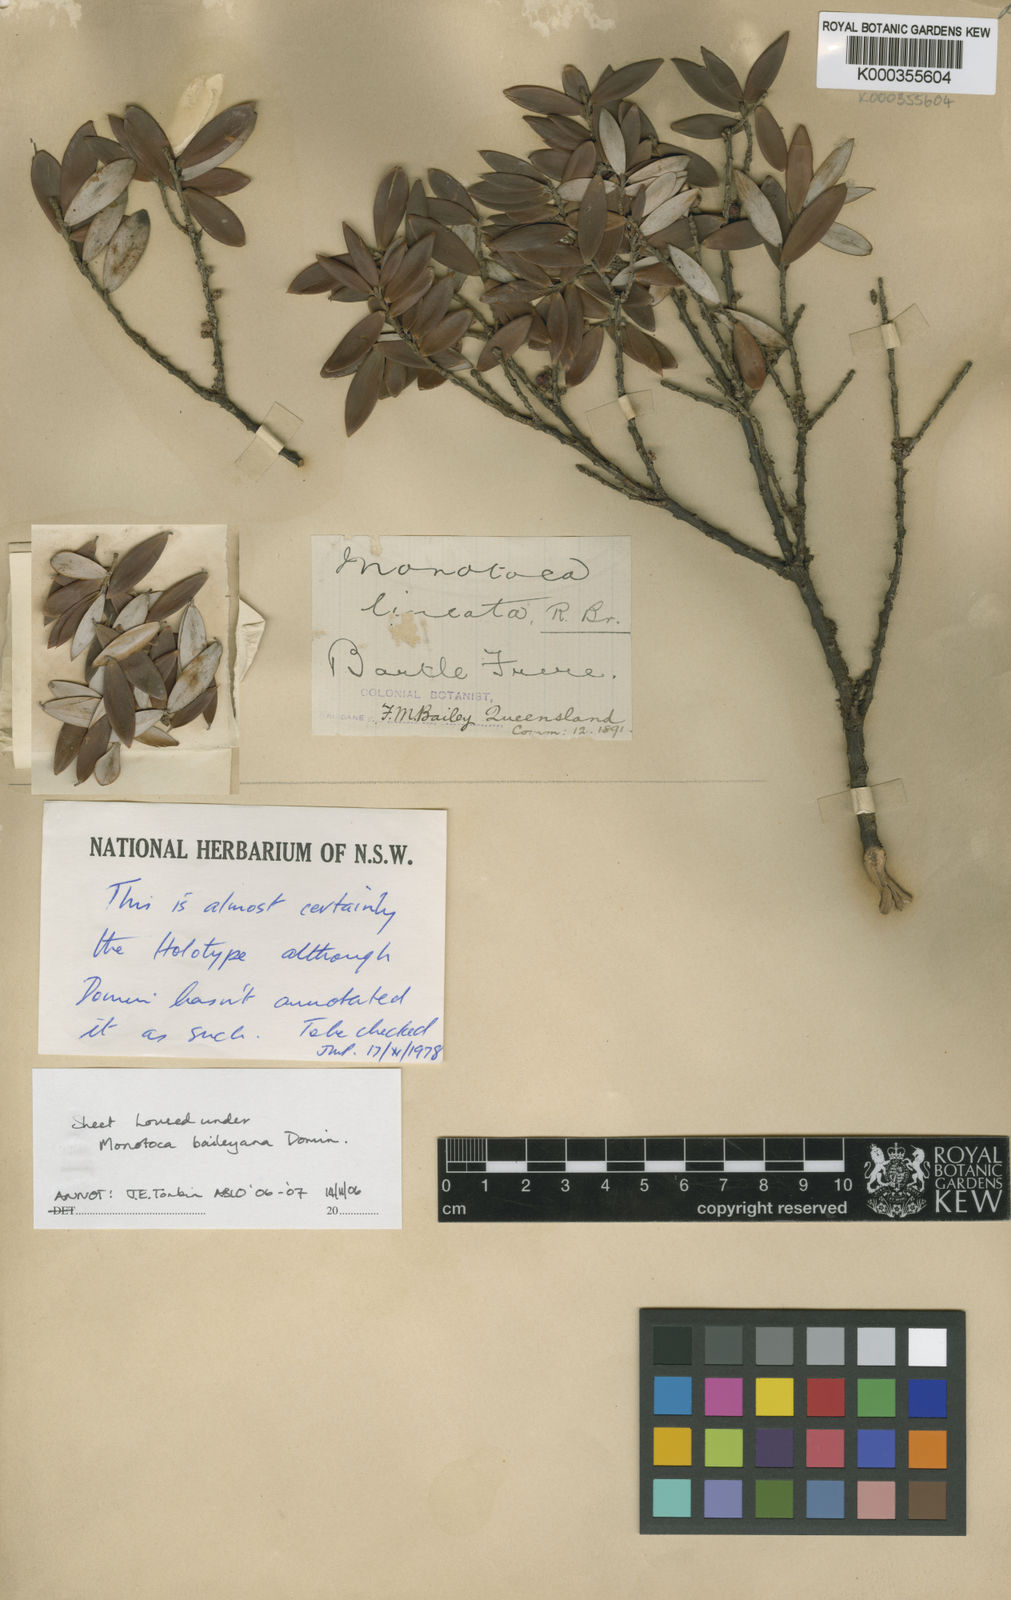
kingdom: Plantae
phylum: Tracheophyta
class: Magnoliopsida
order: Ericales
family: Ericaceae
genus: Acrotriche
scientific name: Acrotriche baileyana
